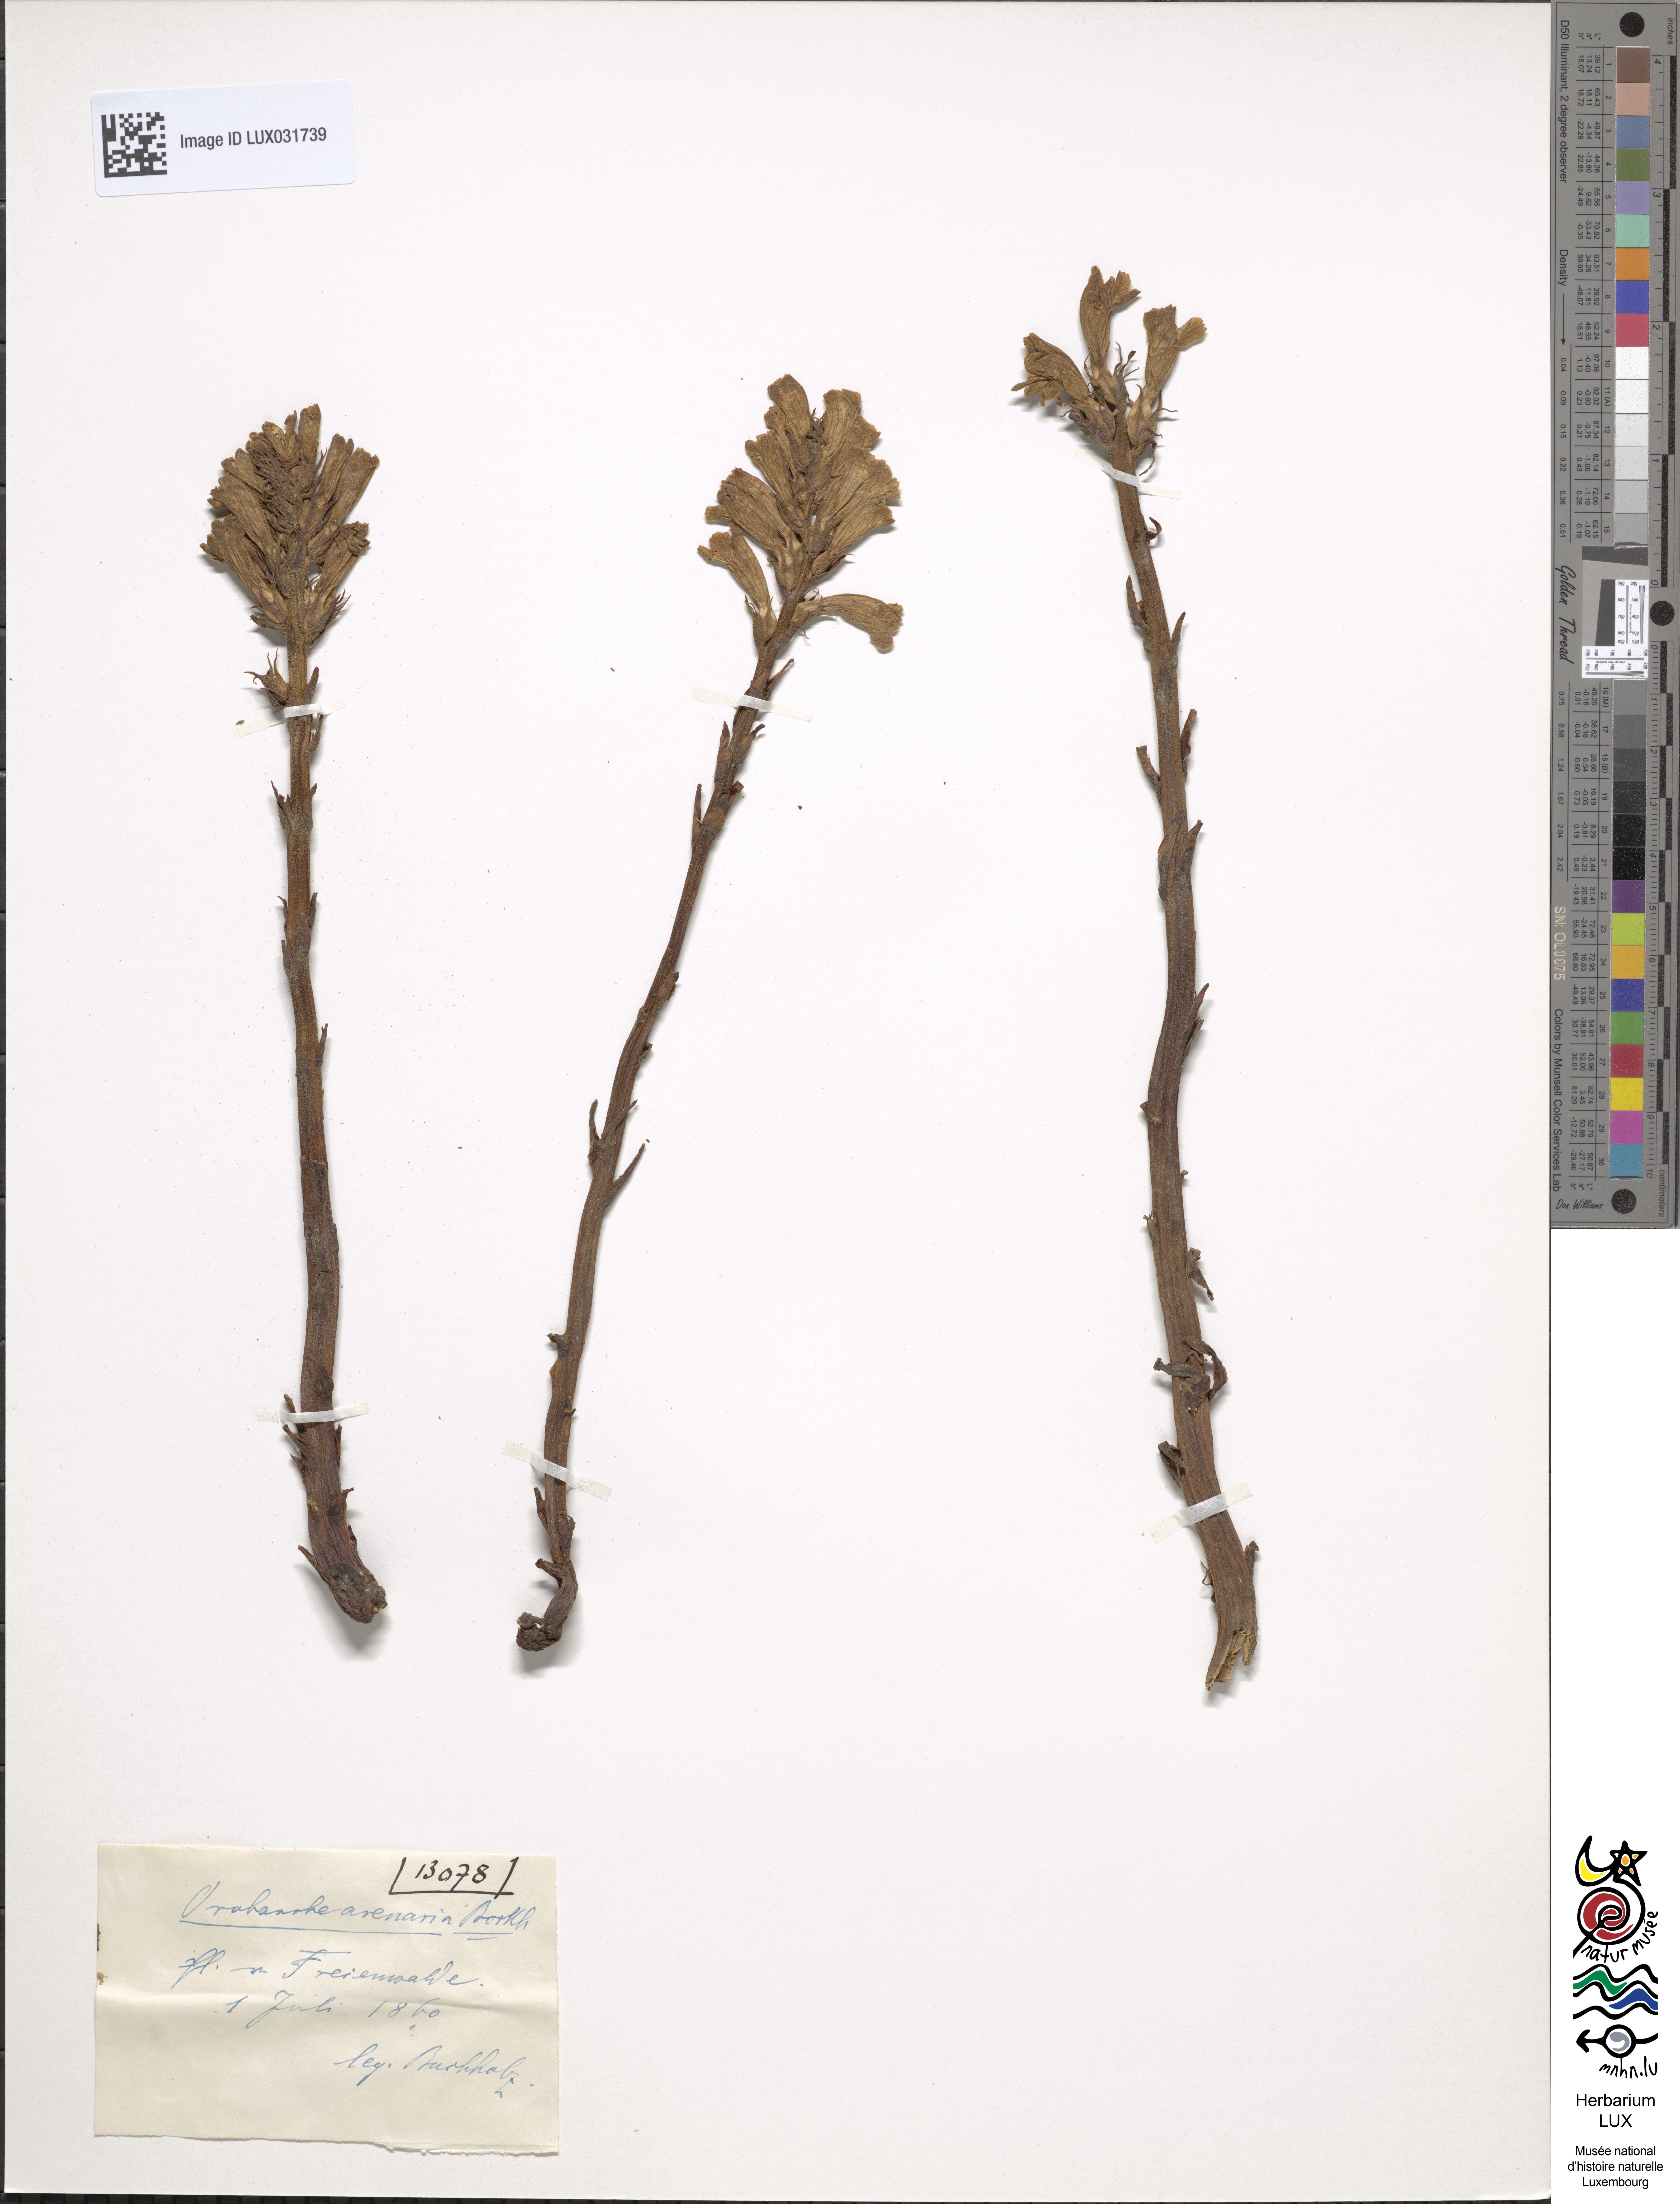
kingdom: Plantae
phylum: Tracheophyta
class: Magnoliopsida
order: Lamiales
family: Orobanchaceae
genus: Phelipanche
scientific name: Phelipanche arenaria
